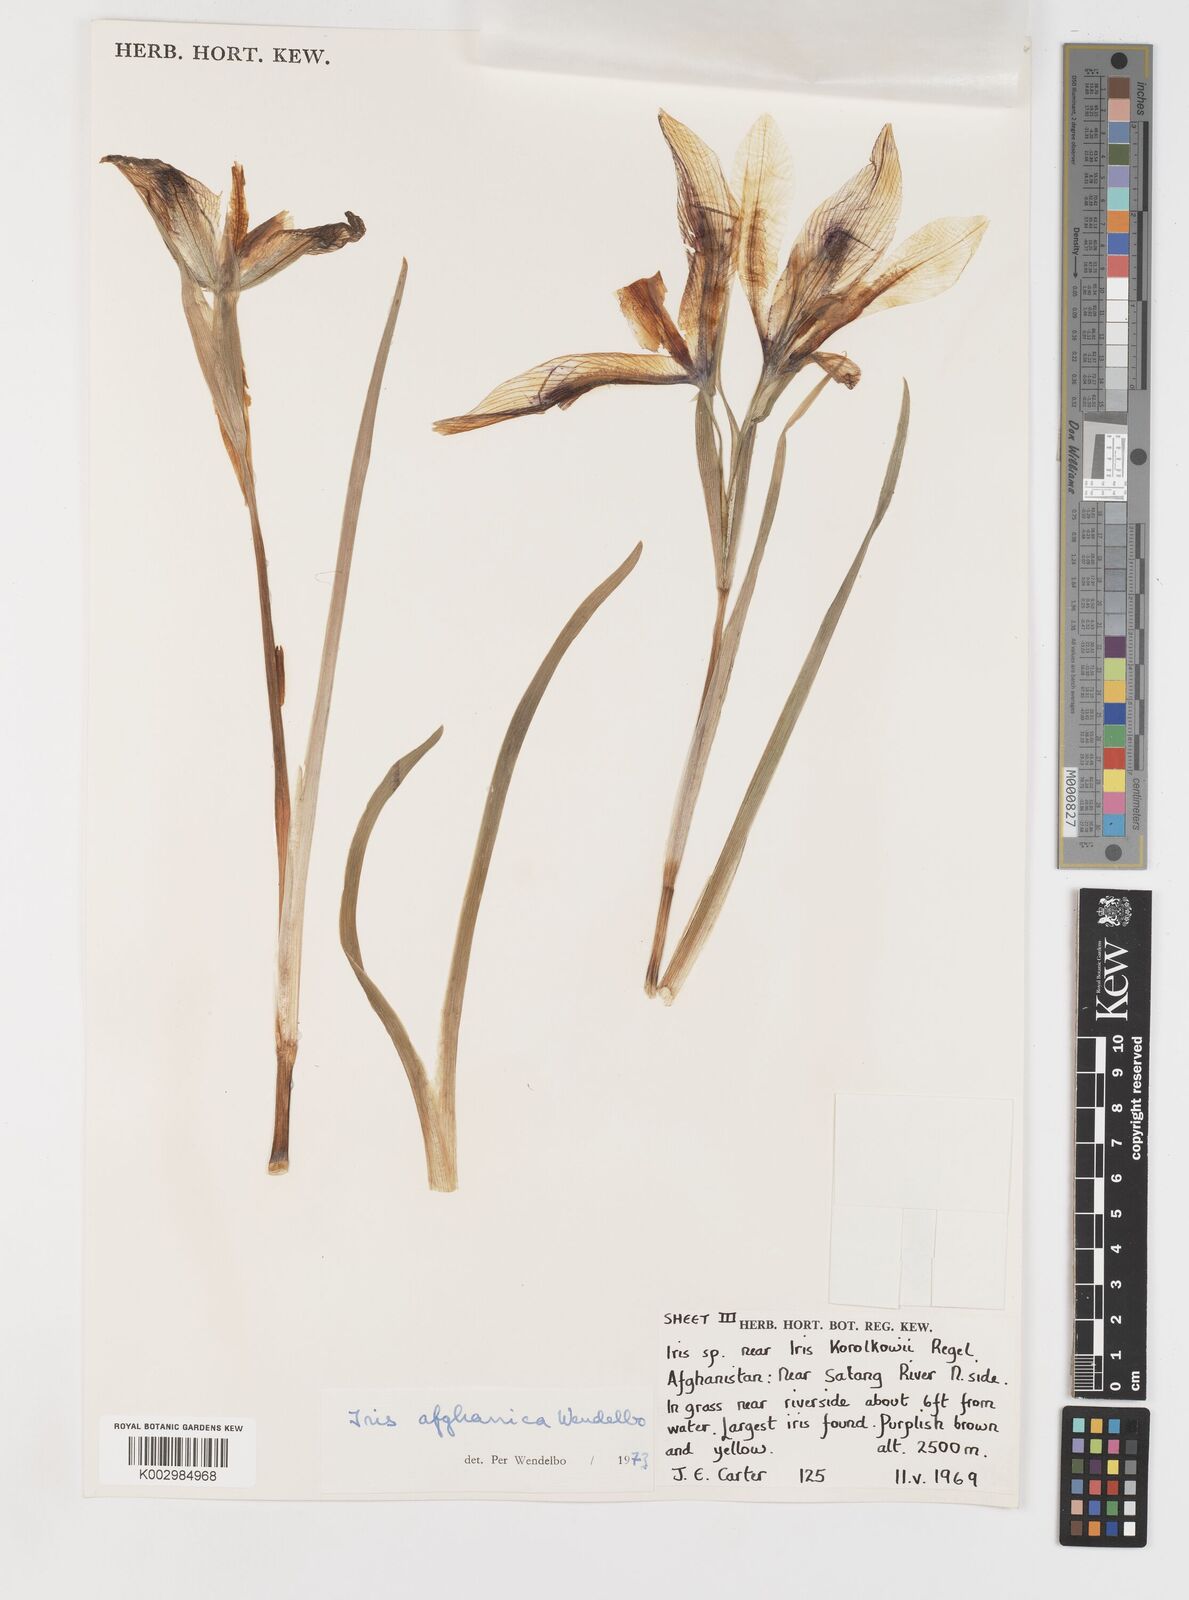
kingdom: Plantae
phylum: Tracheophyta
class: Liliopsida
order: Asparagales
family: Iridaceae
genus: Iris
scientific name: Iris afghanica
